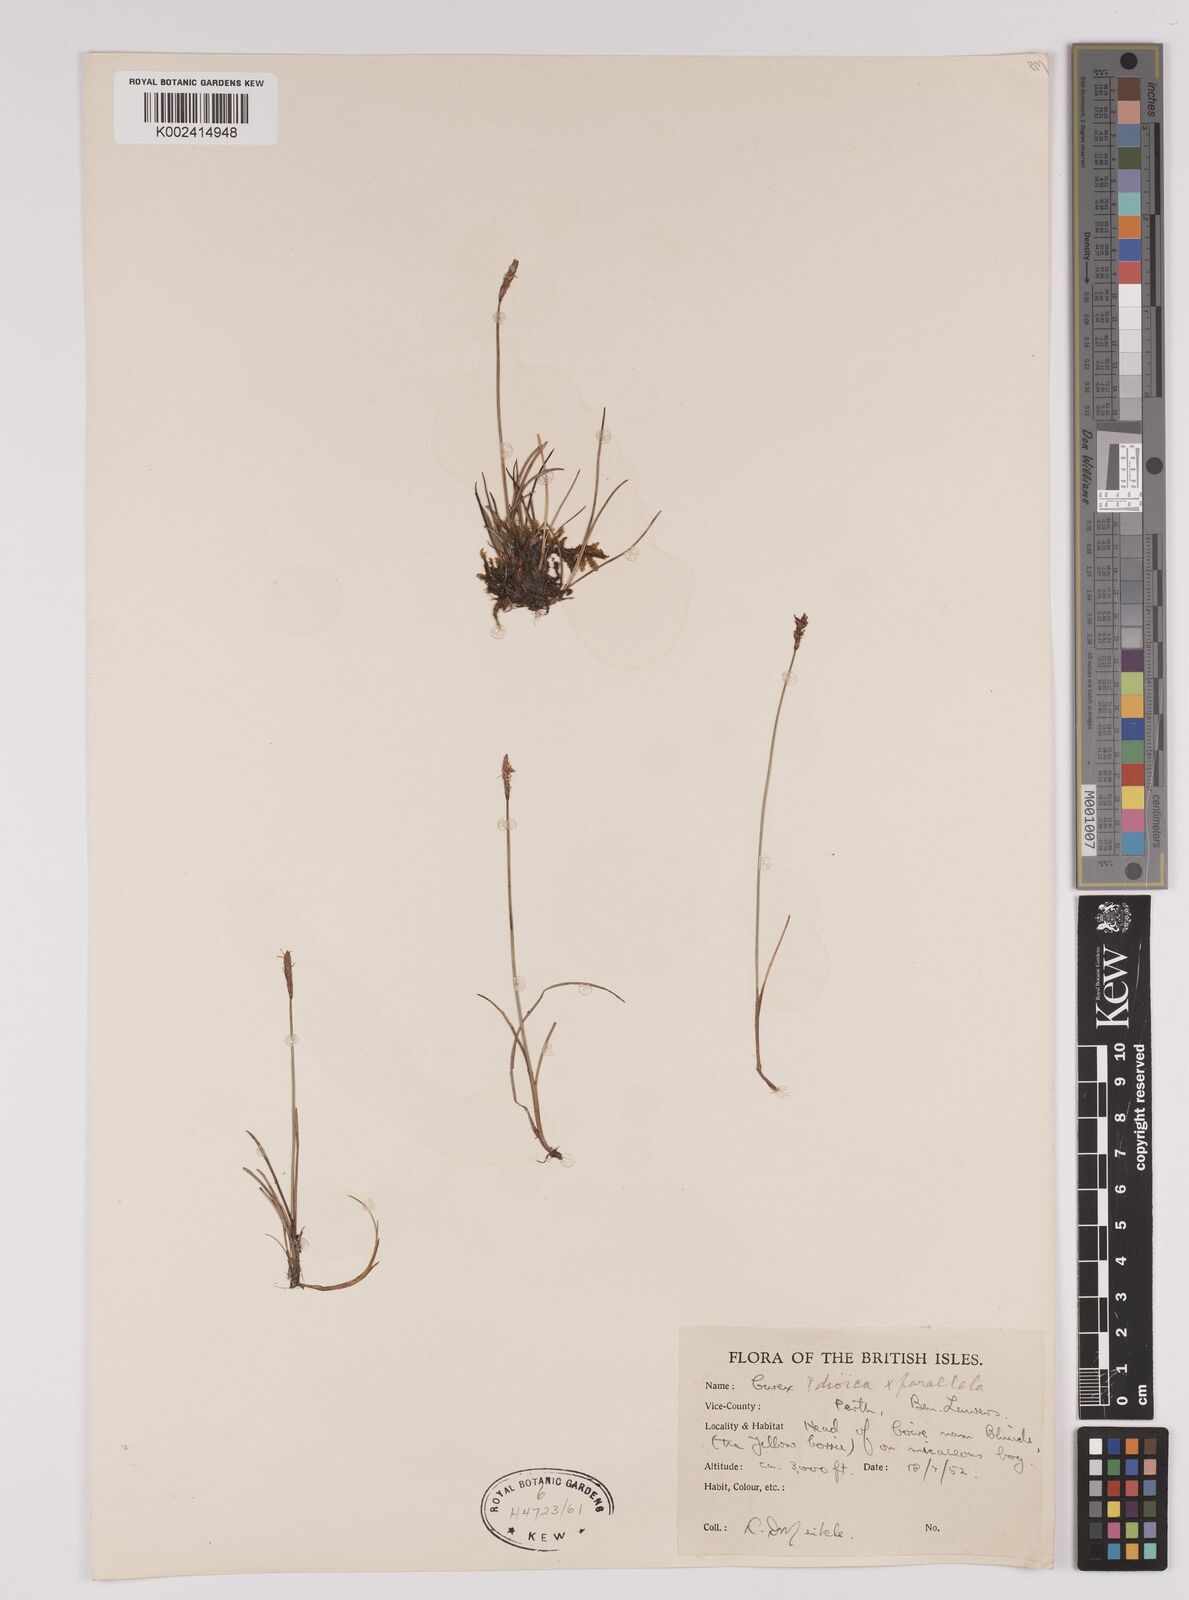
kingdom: Plantae
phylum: Tracheophyta
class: Liliopsida
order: Poales
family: Cyperaceae
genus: Carex
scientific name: Carex dioica
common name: Dioecious sedge
